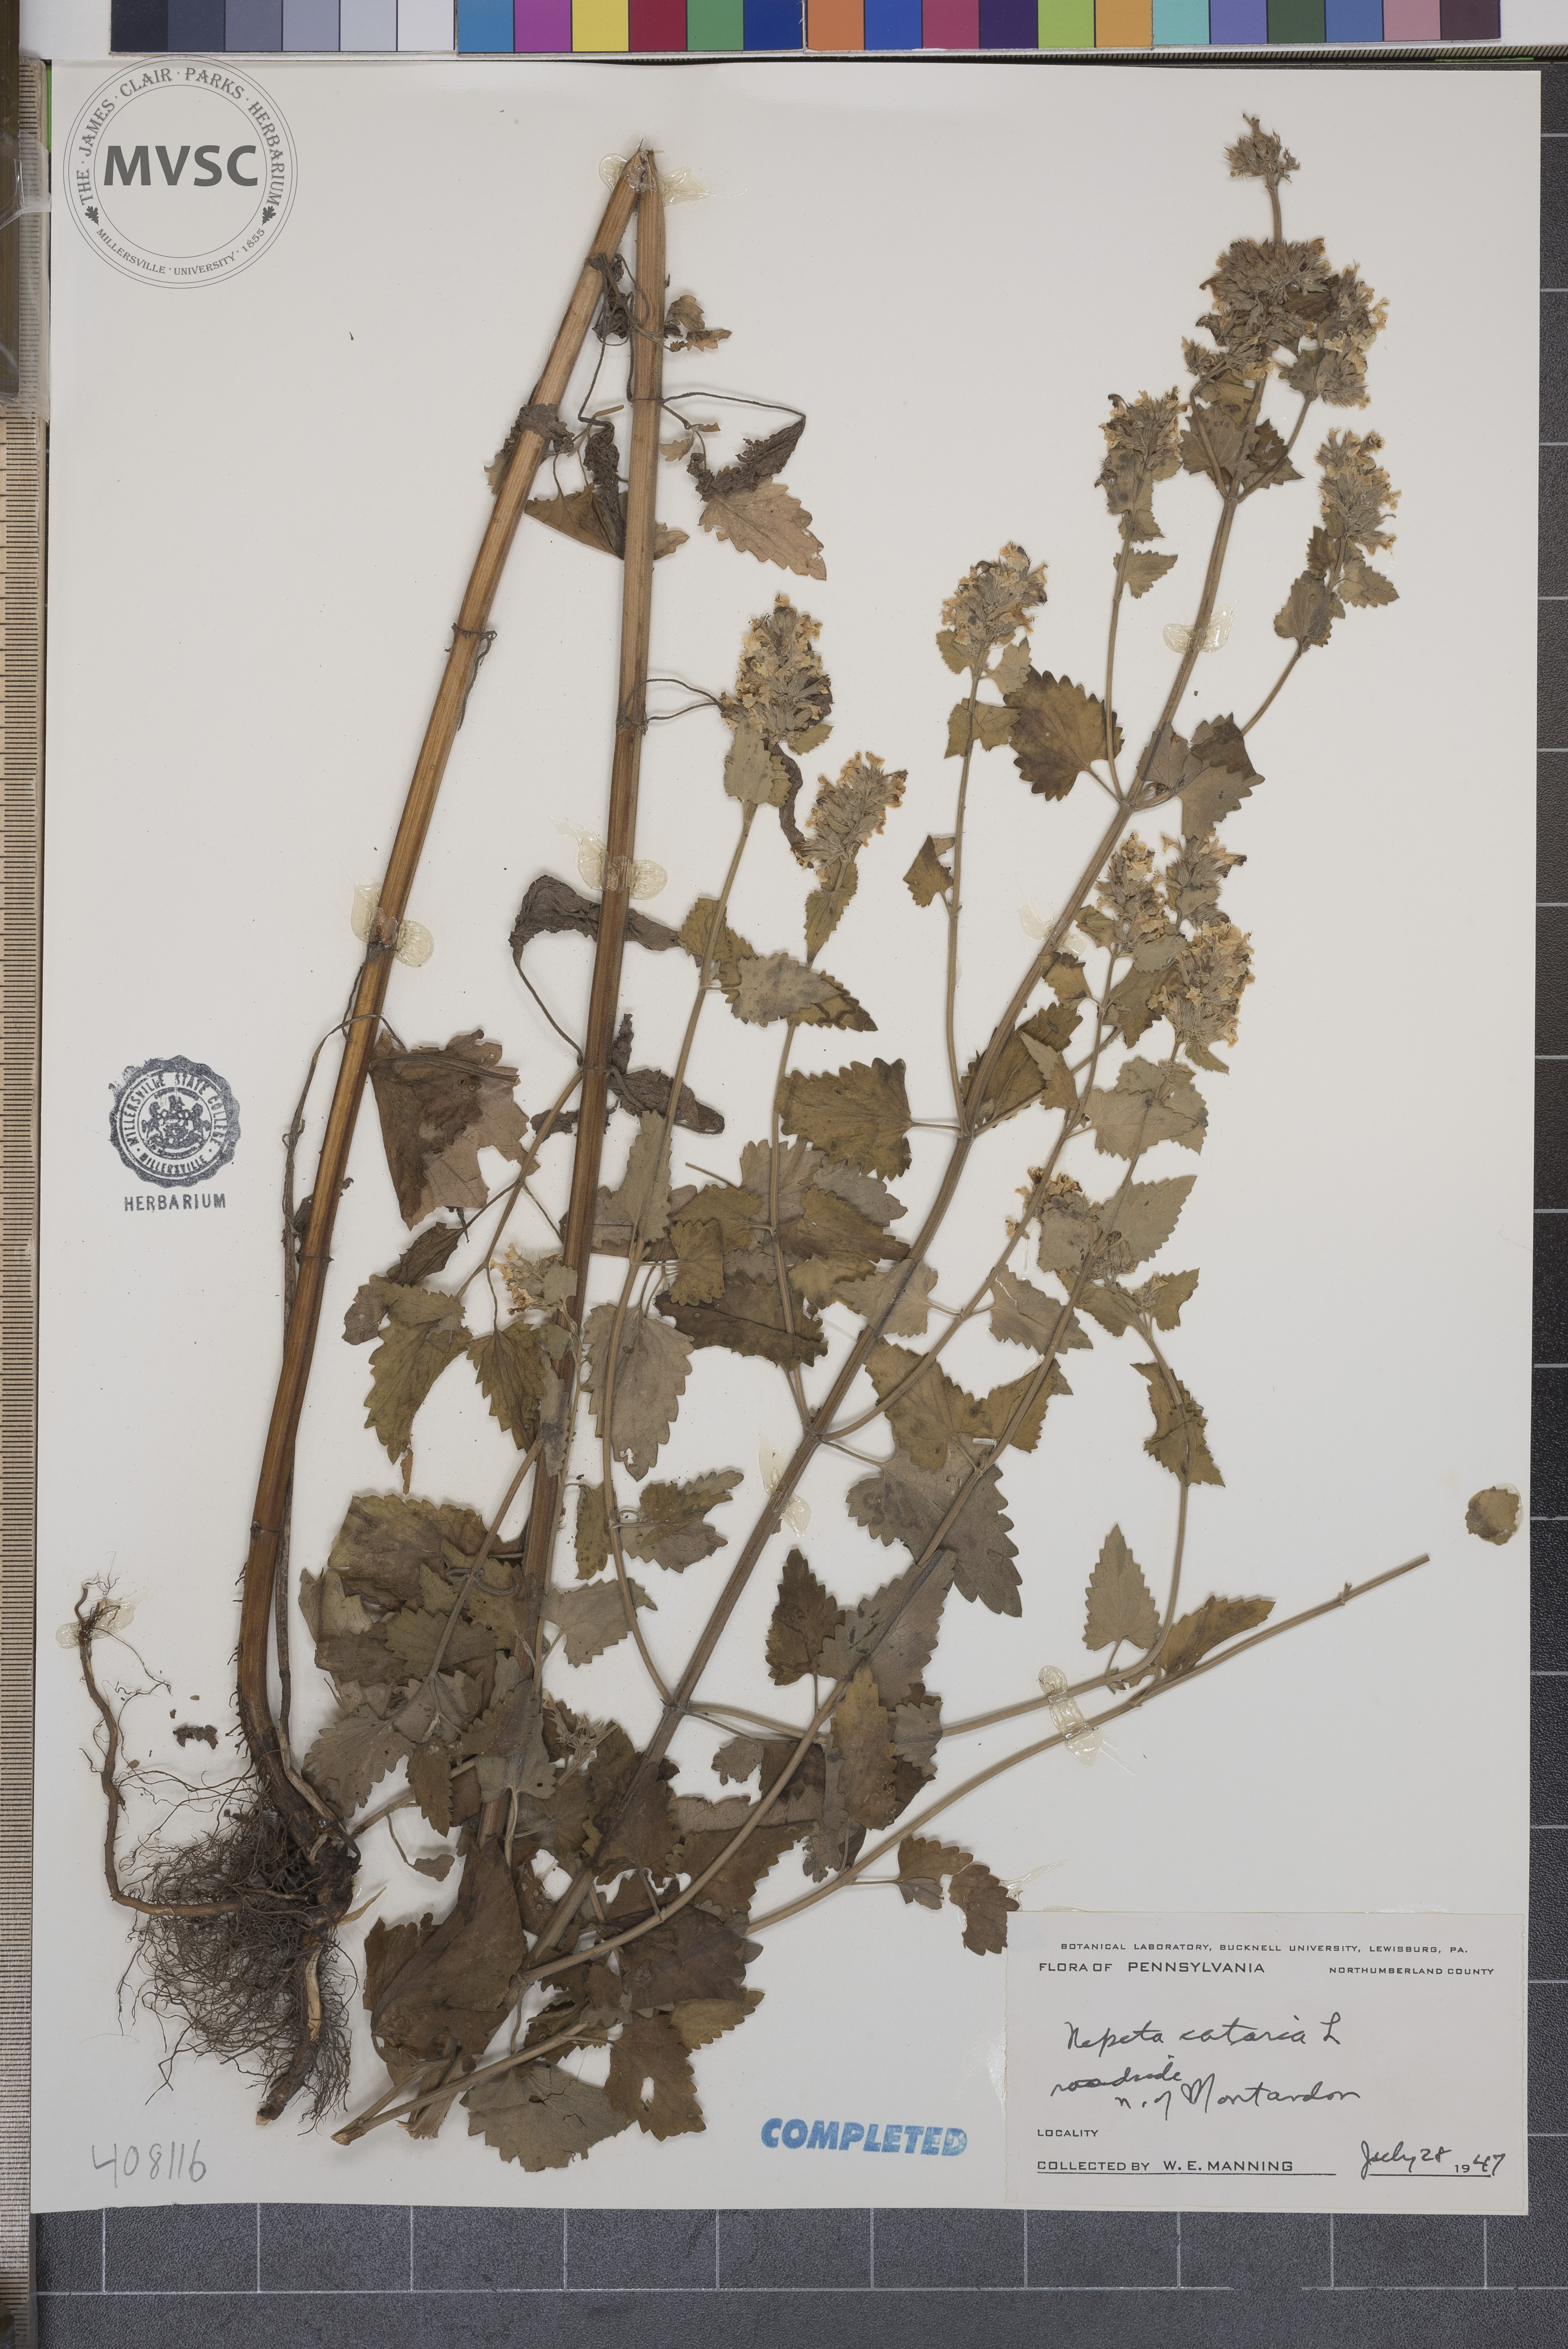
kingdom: Plantae
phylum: Tracheophyta
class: Magnoliopsida
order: Lamiales
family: Lamiaceae
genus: Nepeta
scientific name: Nepeta cataria
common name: Catnip
